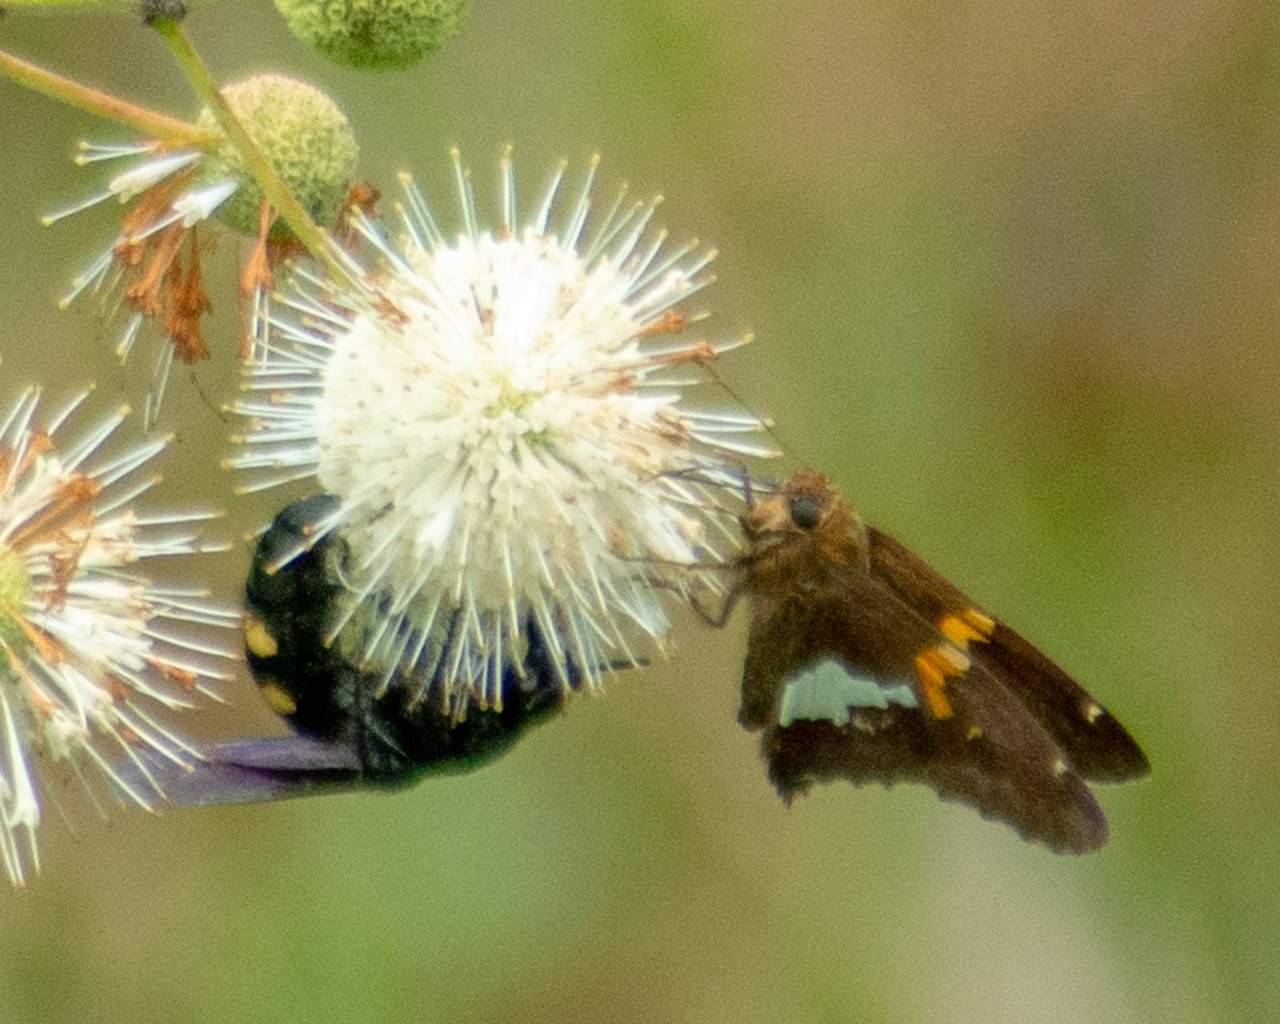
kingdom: Animalia
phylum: Arthropoda
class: Insecta
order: Lepidoptera
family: Hesperiidae
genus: Epargyreus
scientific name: Epargyreus clarus
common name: Silver-spotted Skipper
